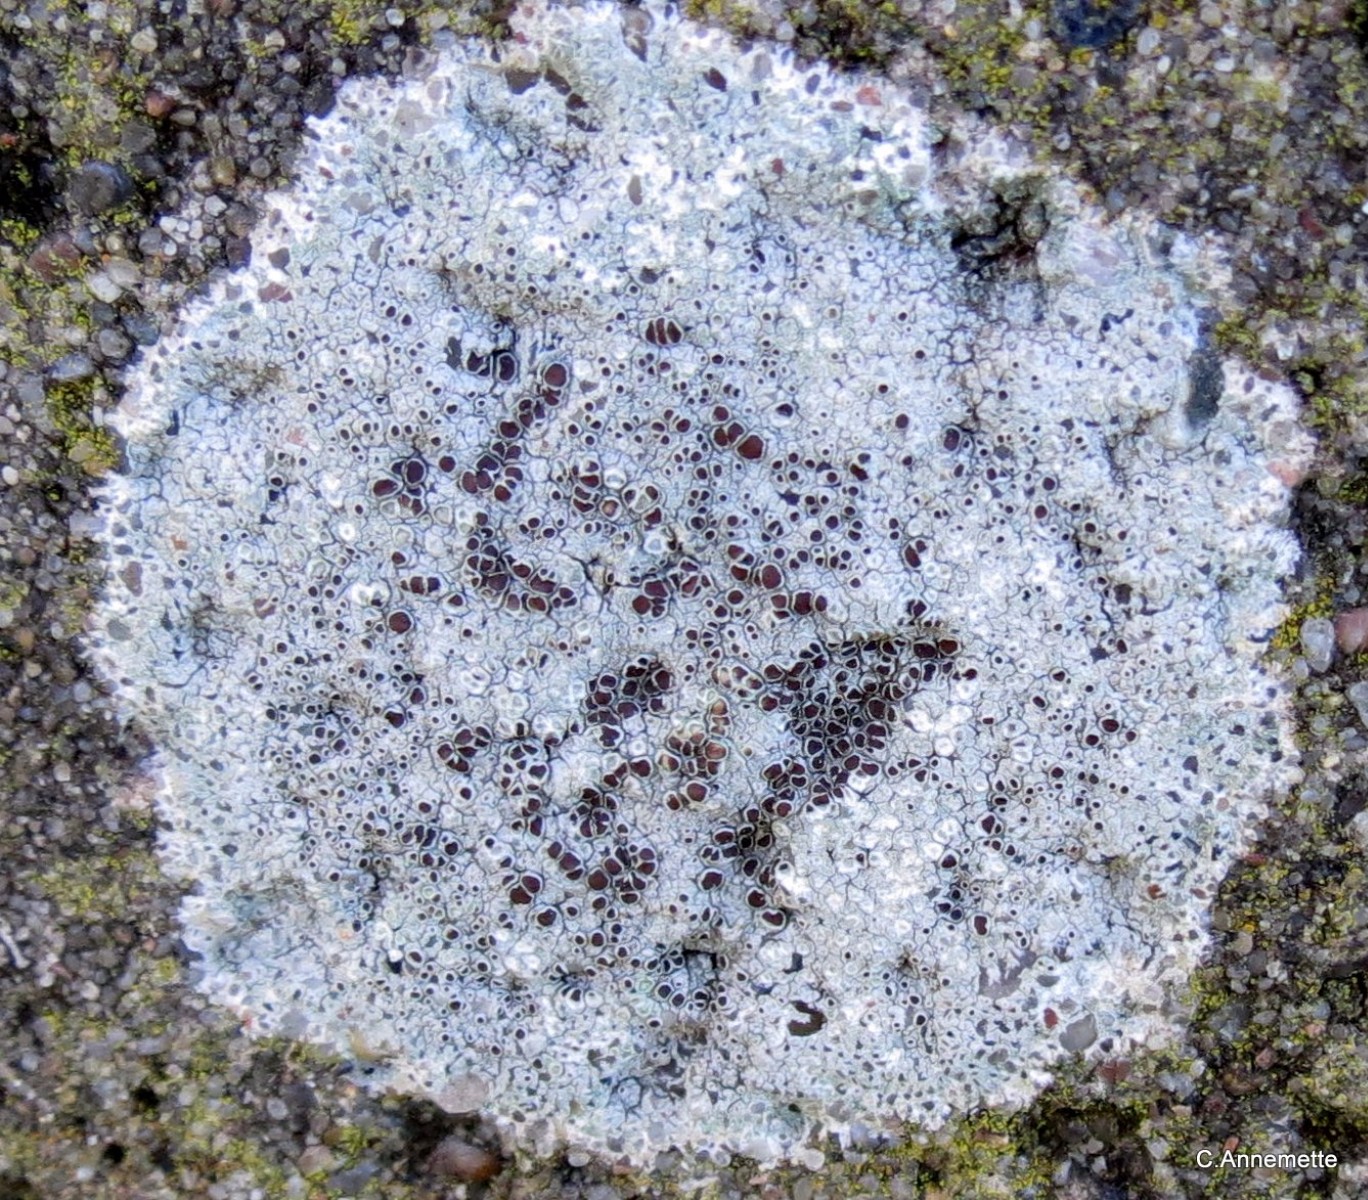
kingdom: Fungi
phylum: Ascomycota
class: Lecanoromycetes
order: Lecanorales
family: Lecanoraceae
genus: Lecanora
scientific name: Lecanora campestris
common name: mur-kantskivelav
